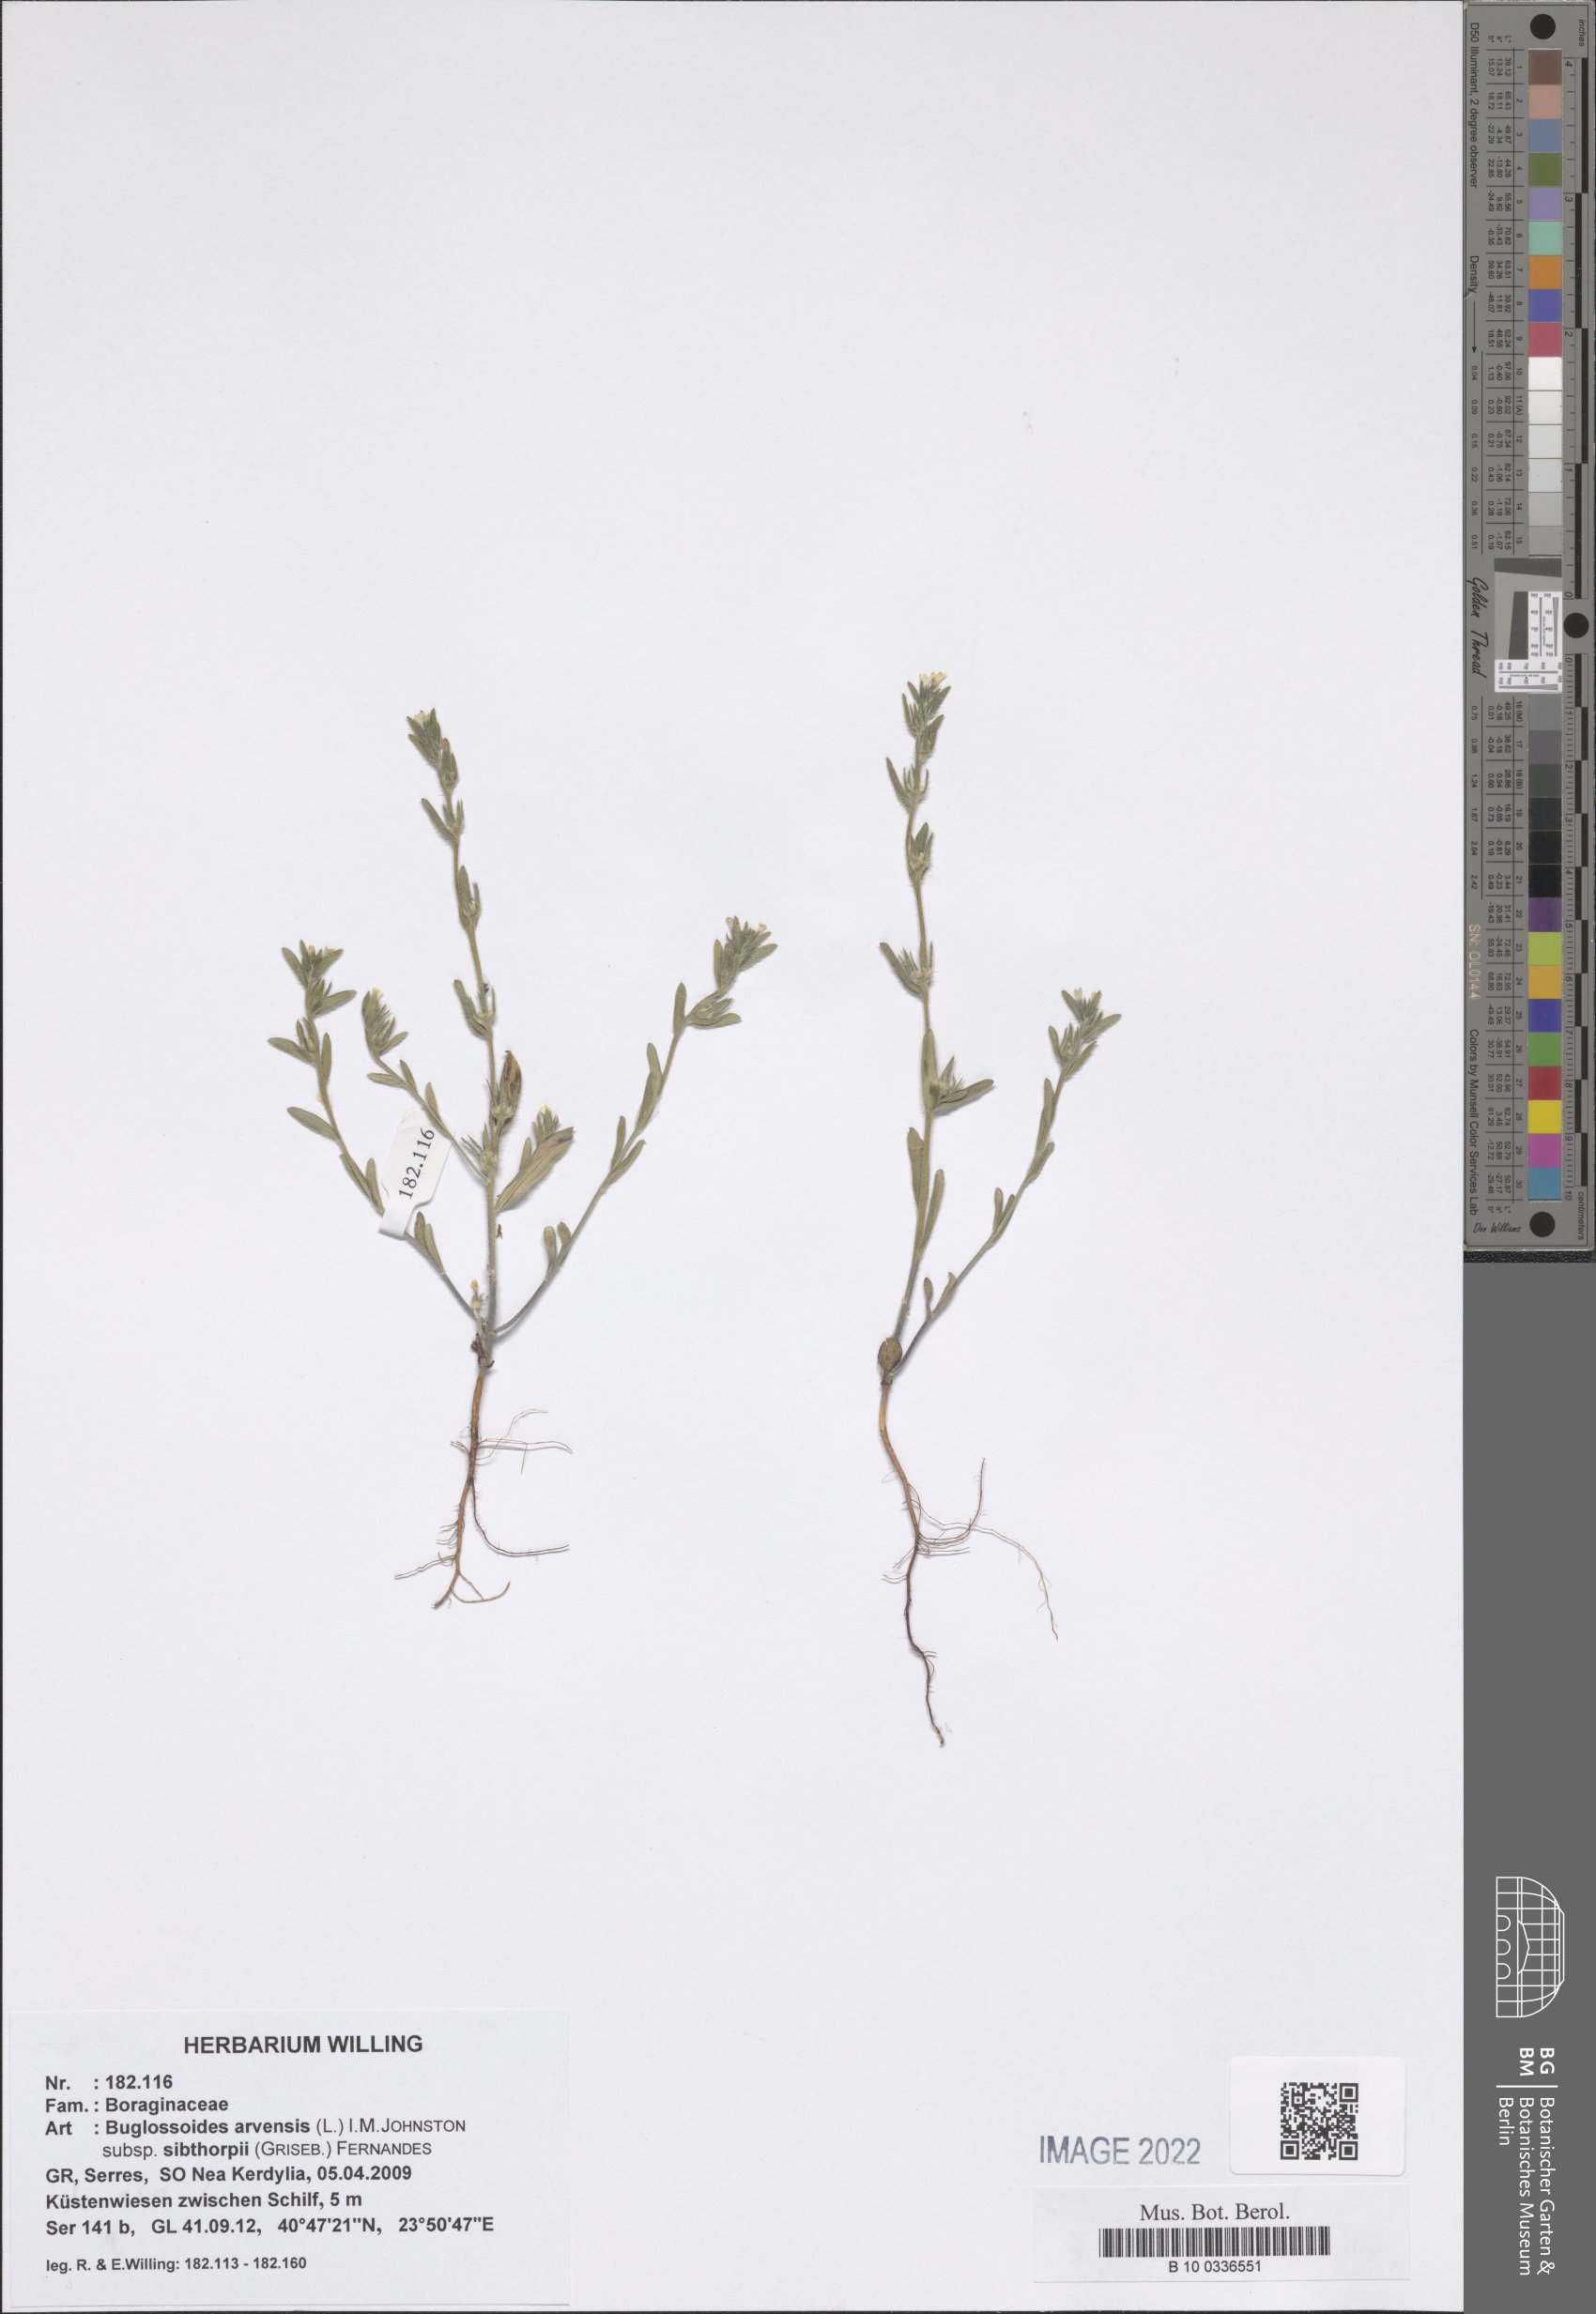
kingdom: Plantae
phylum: Tracheophyta
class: Magnoliopsida
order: Boraginales
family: Boraginaceae
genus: Buglossoides
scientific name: Buglossoides arvensis
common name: Corn gromwell
